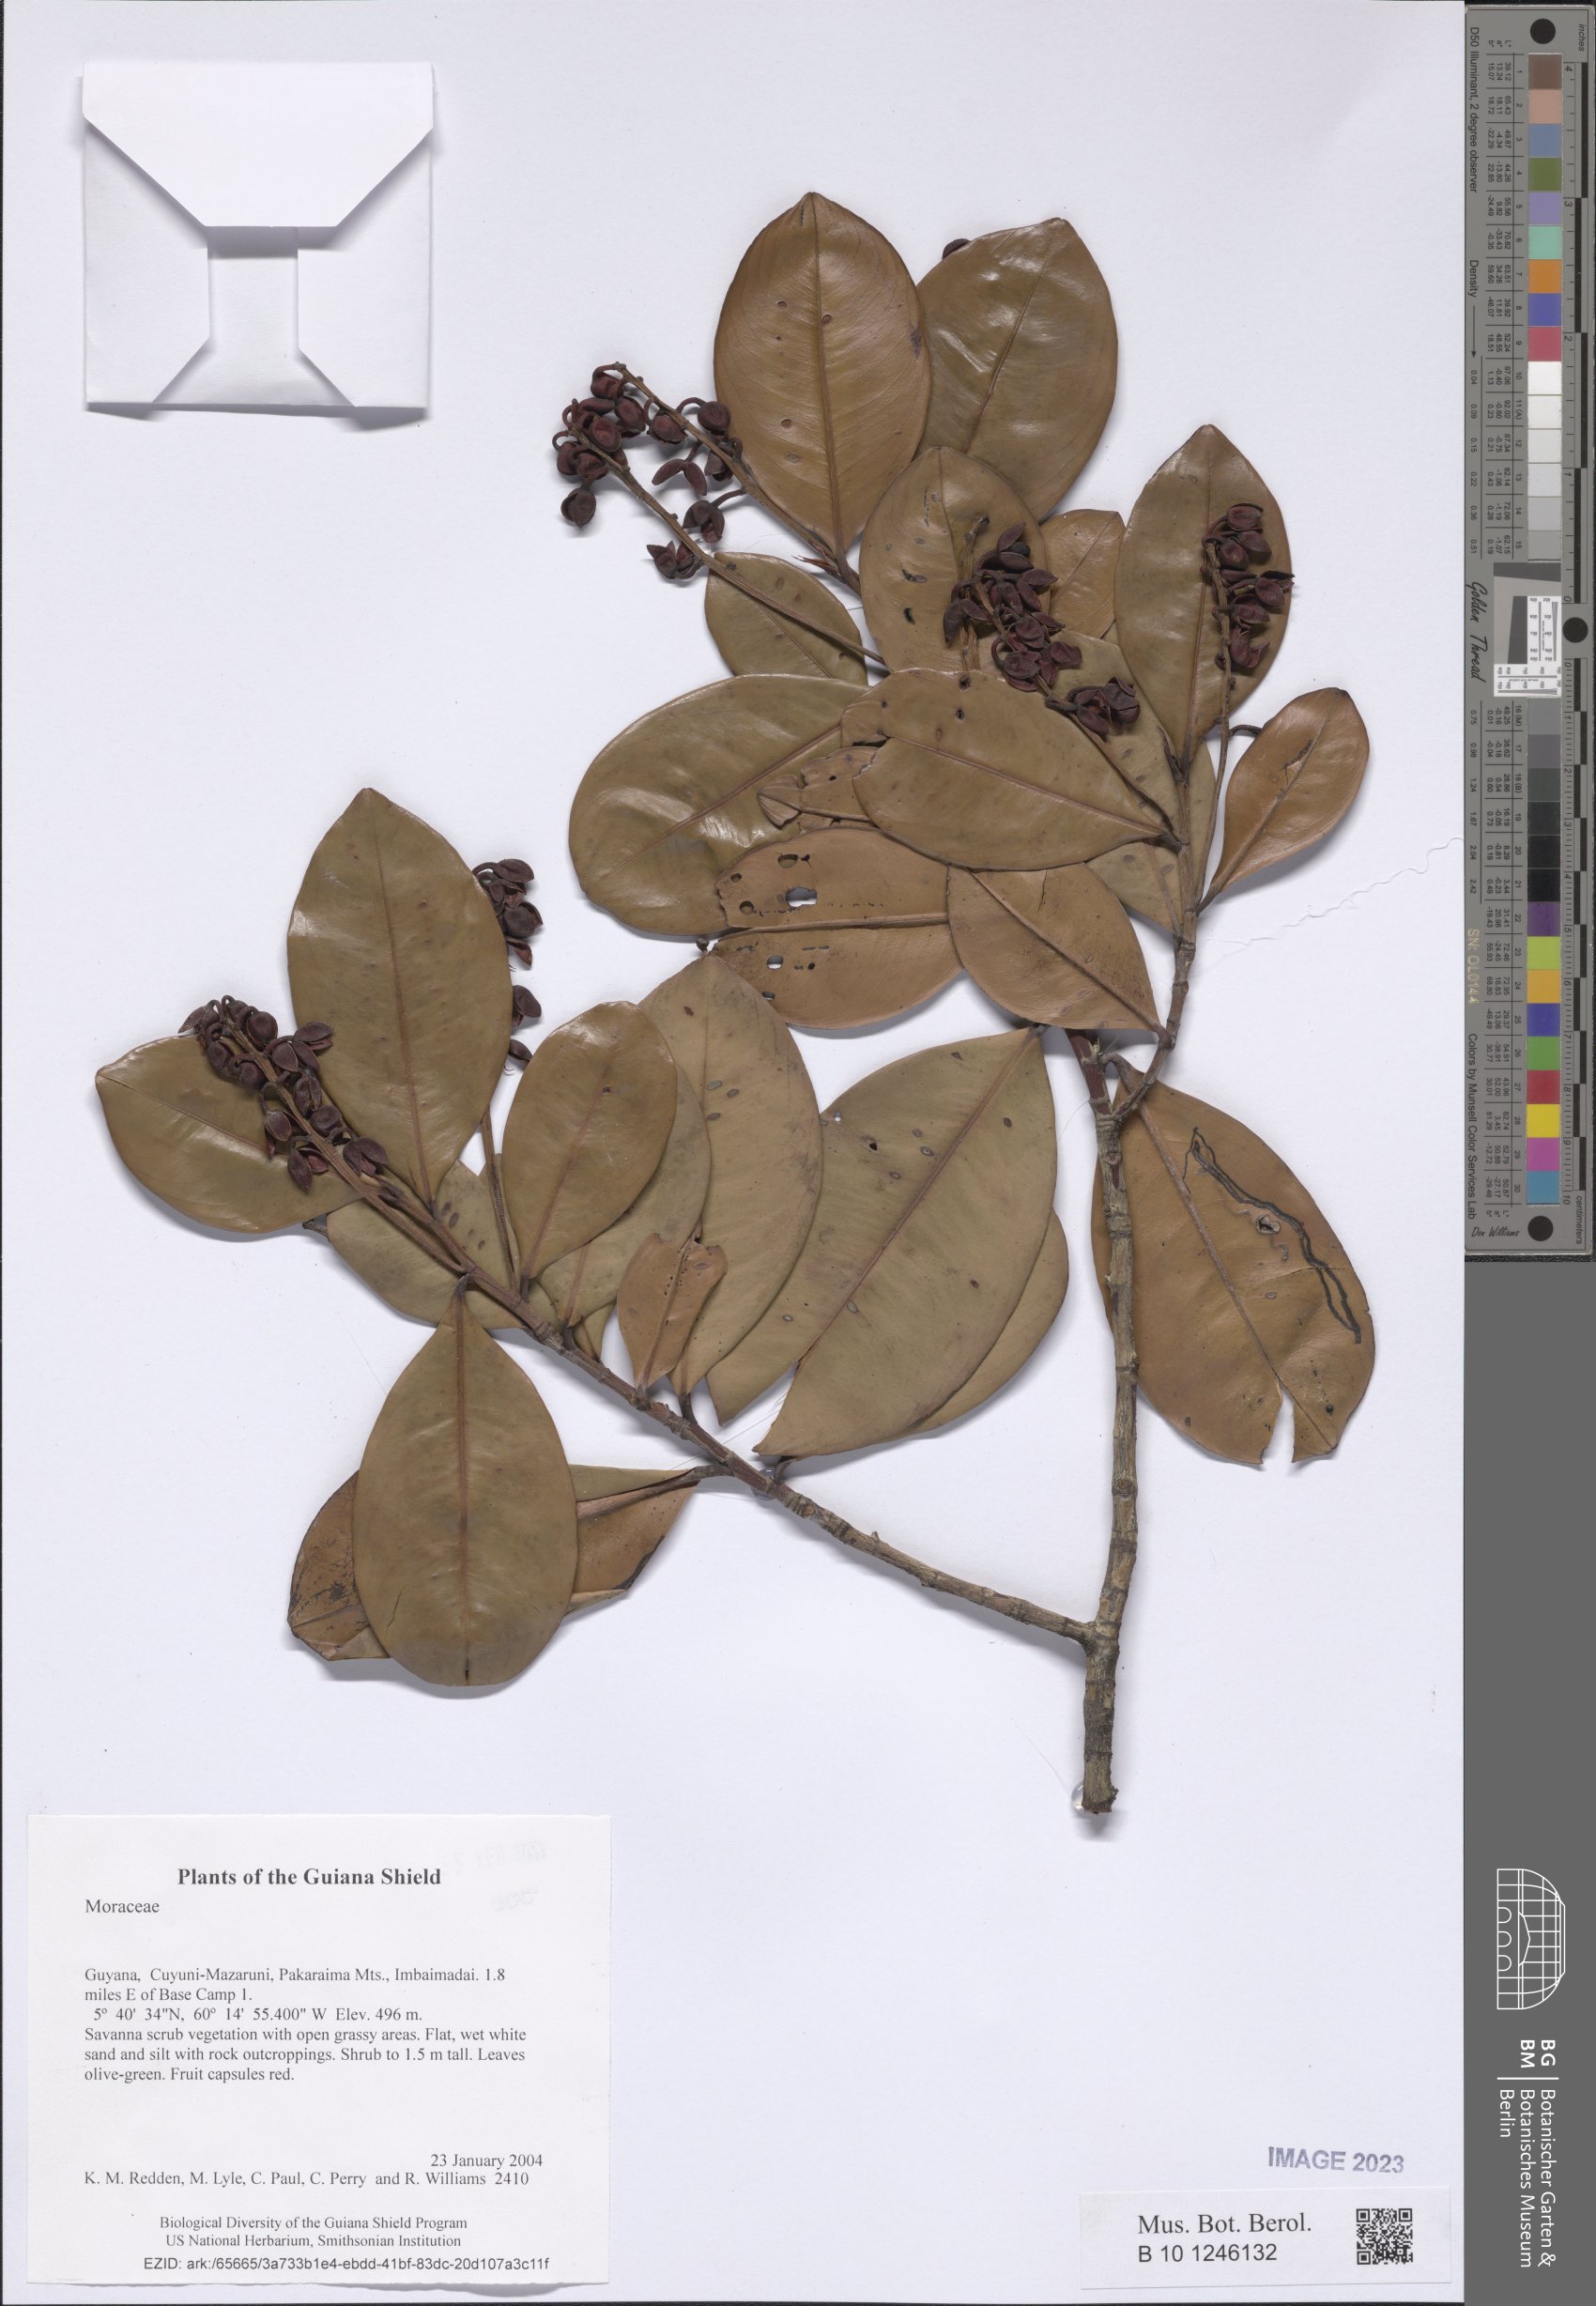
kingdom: Plantae
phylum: Tracheophyta
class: Magnoliopsida
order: Malpighiales
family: Ochnaceae
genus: Ouratea
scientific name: Ouratea
